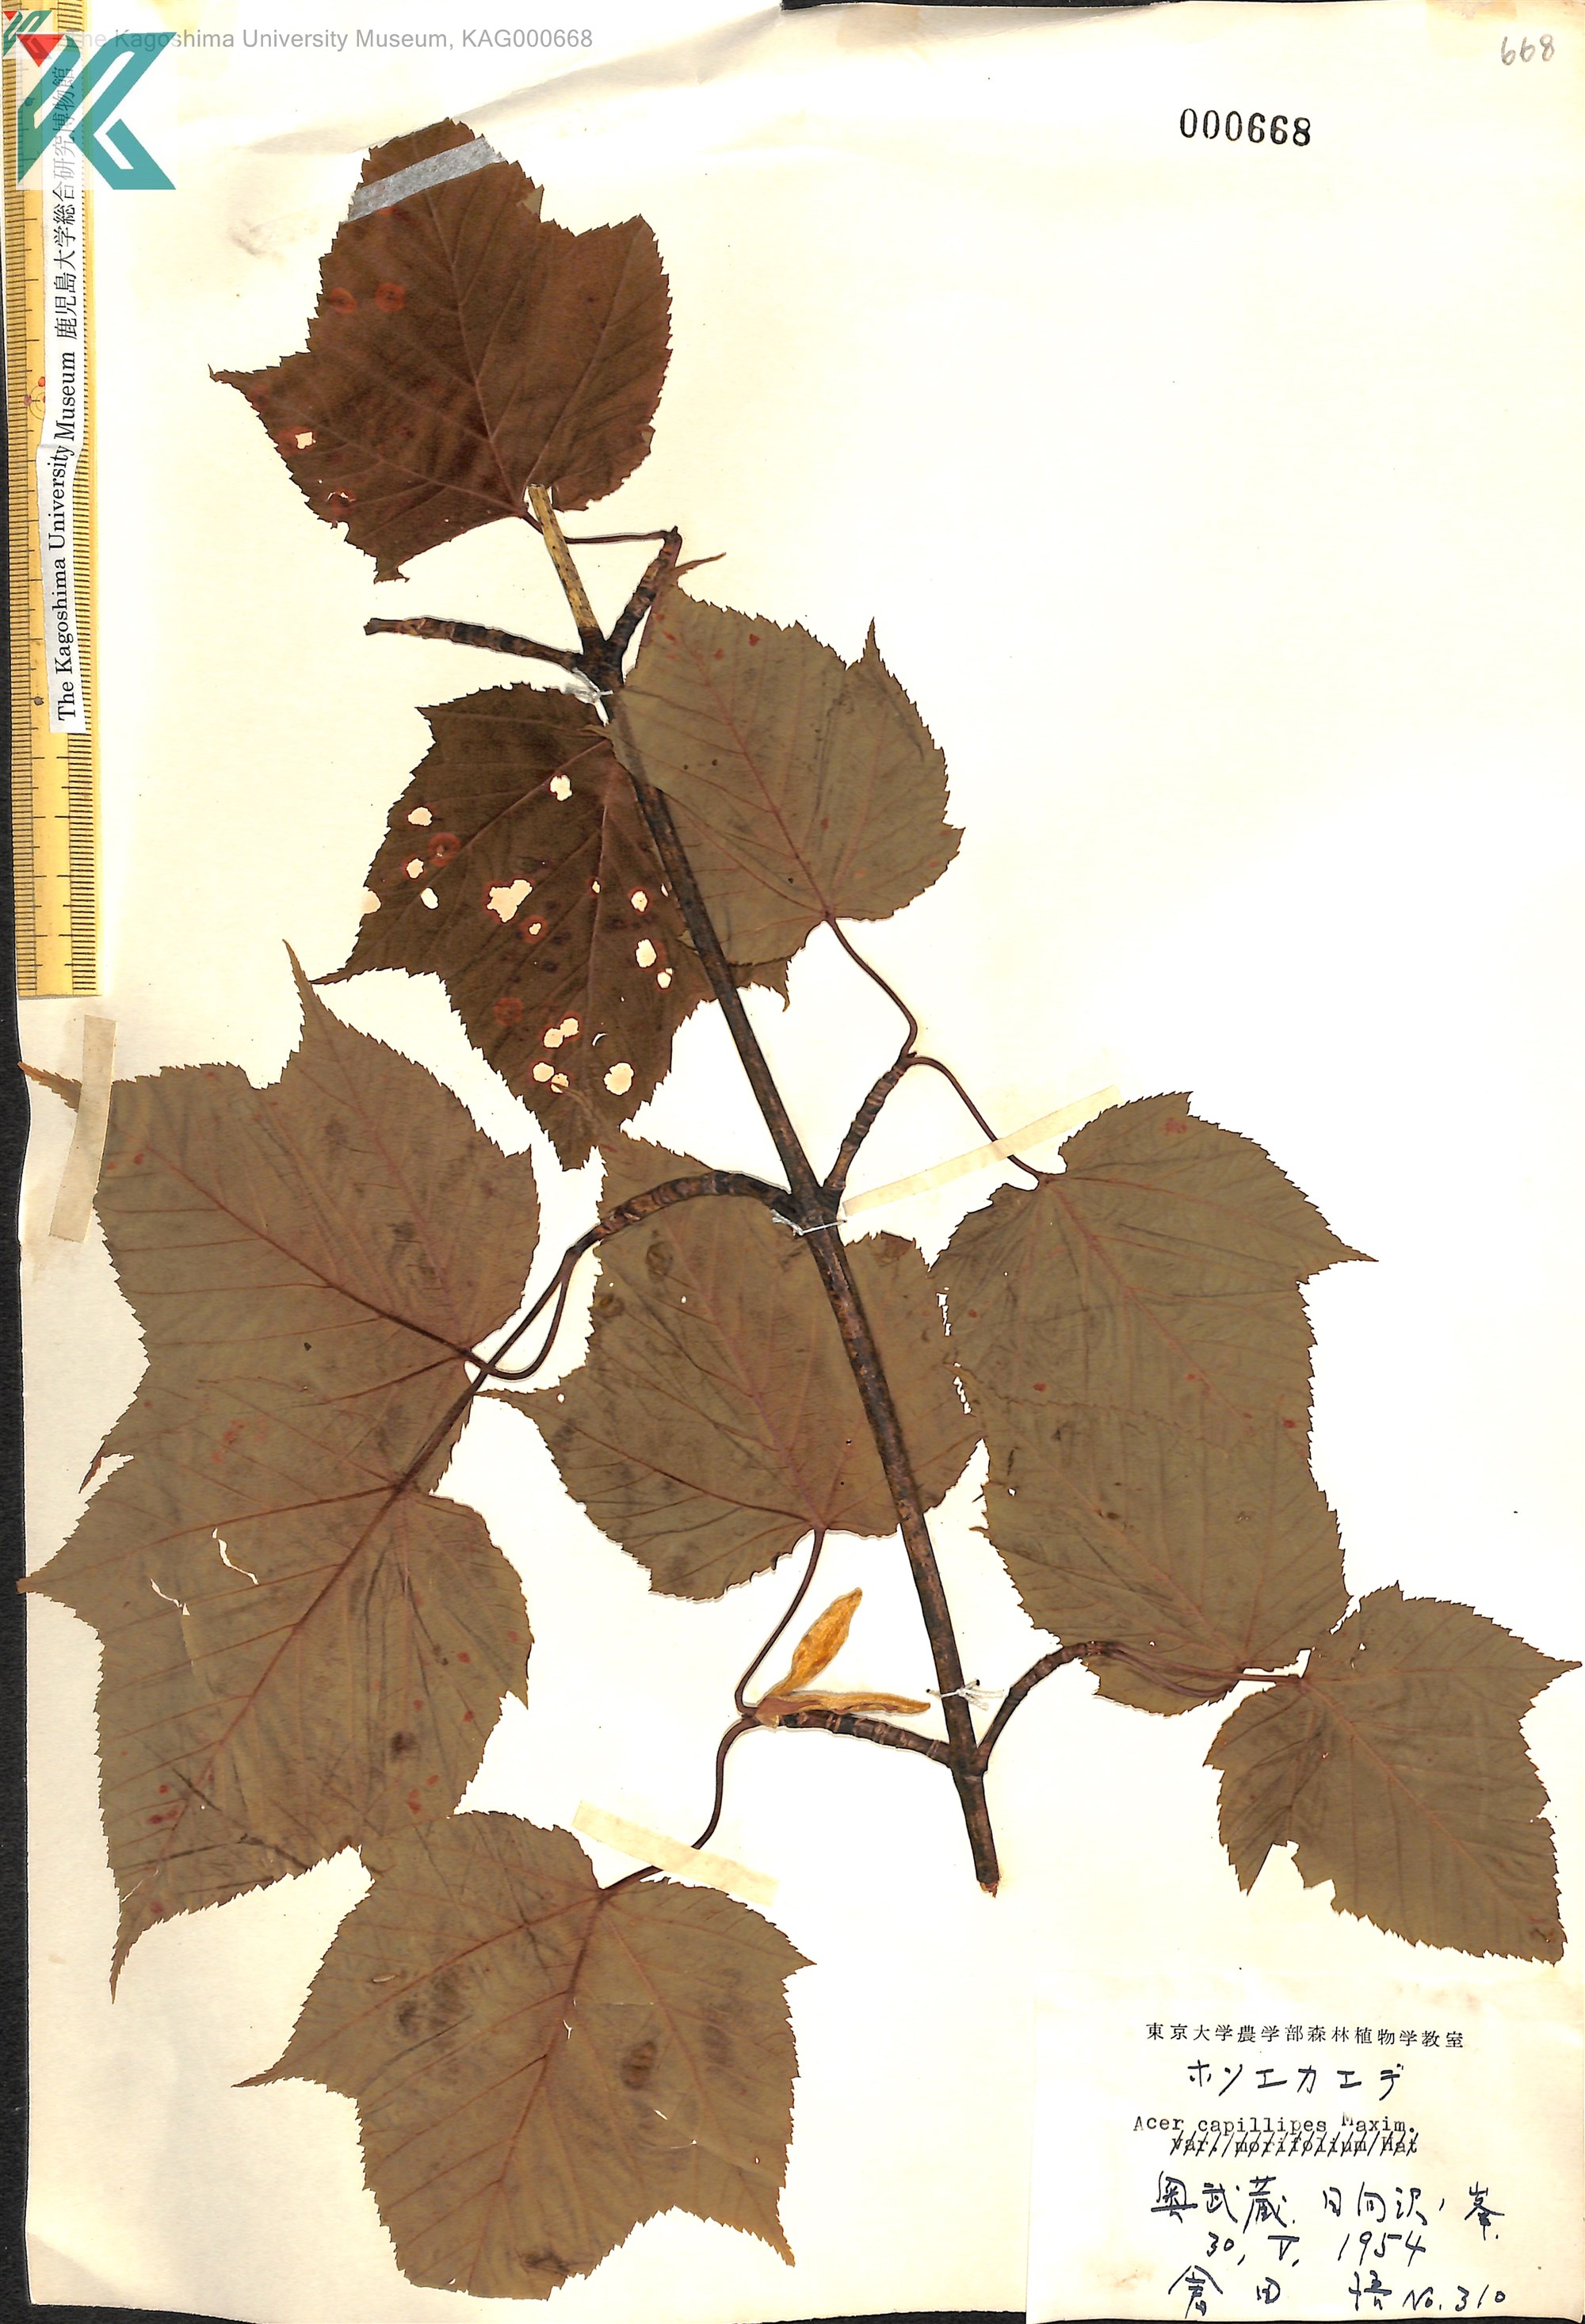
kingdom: Plantae
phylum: Tracheophyta
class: Magnoliopsida
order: Sapindales
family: Sapindaceae
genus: Acer
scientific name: Acer capillipes
